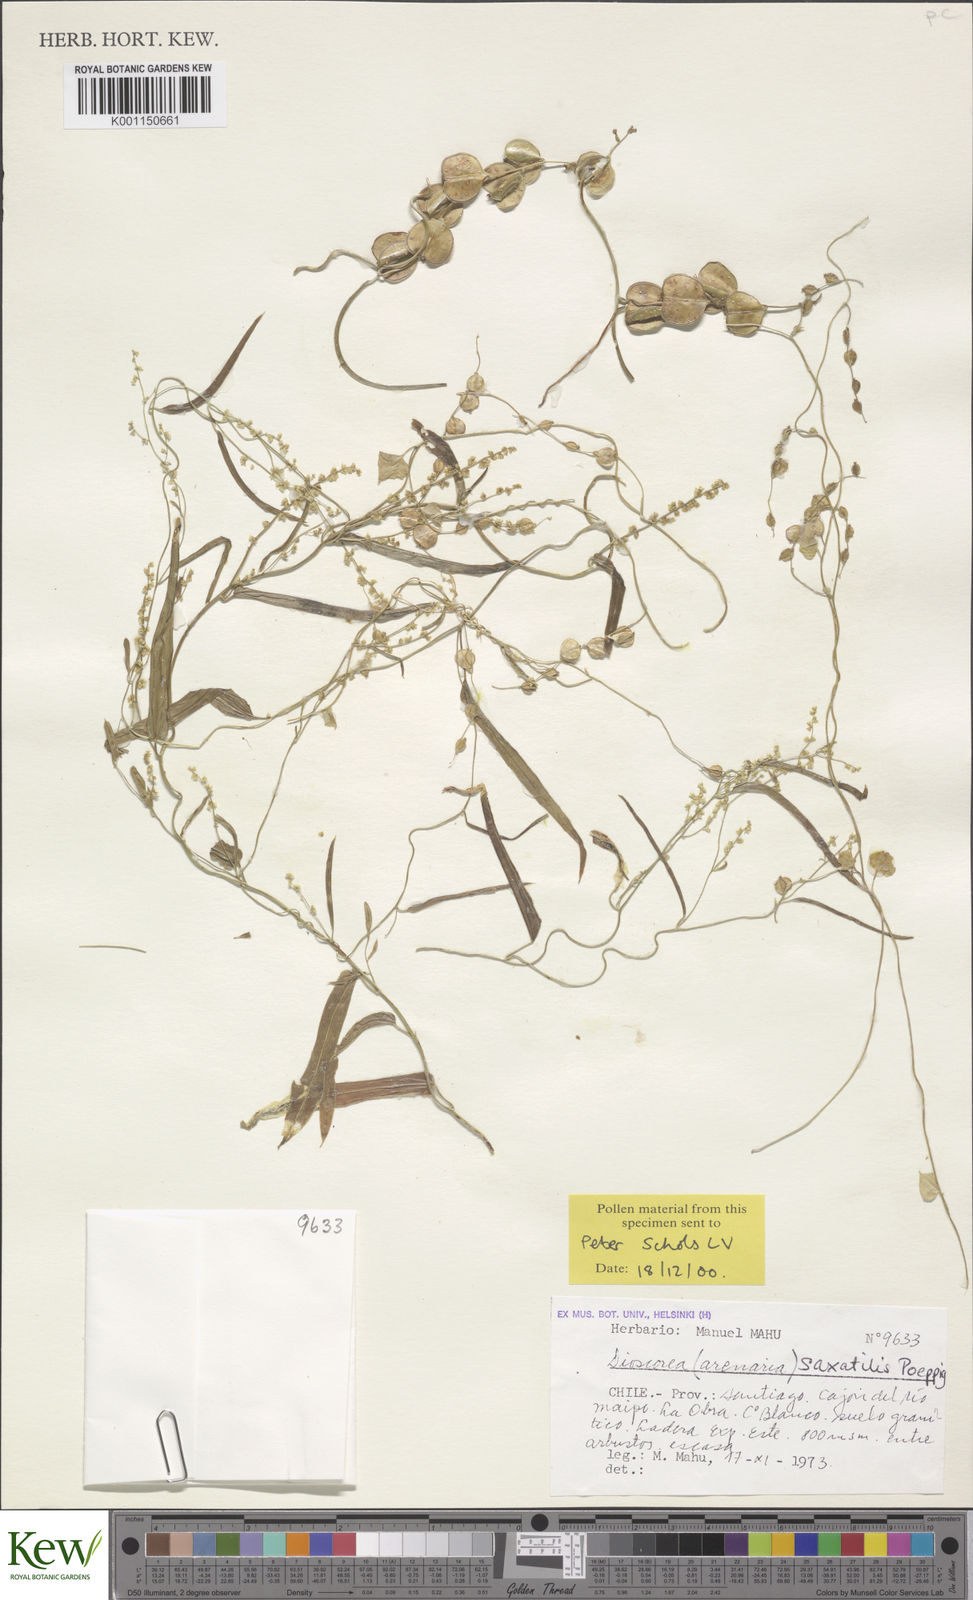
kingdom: Plantae
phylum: Tracheophyta
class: Liliopsida
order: Dioscoreales
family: Dioscoreaceae
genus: Dioscorea
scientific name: Dioscorea saxatilis
